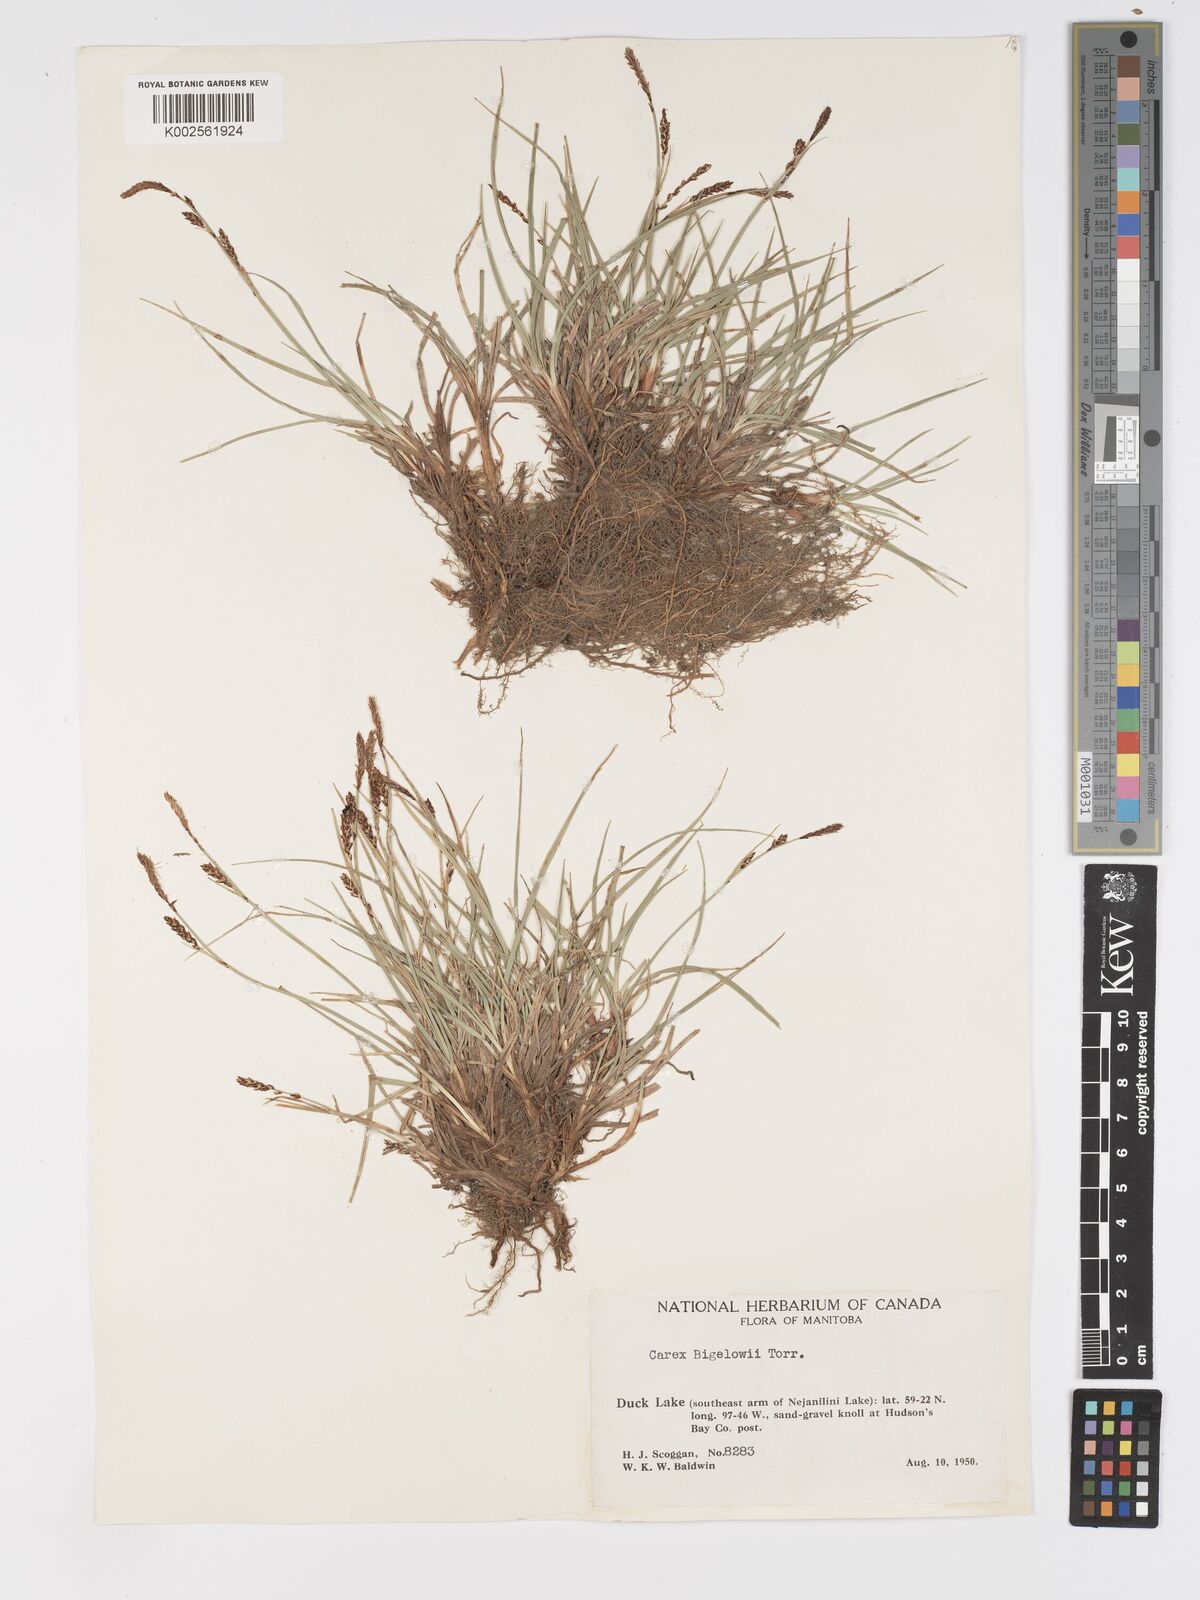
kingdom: Plantae
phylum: Tracheophyta
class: Liliopsida
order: Poales
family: Cyperaceae
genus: Carex
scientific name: Carex bigelowii
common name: Stiff sedge
